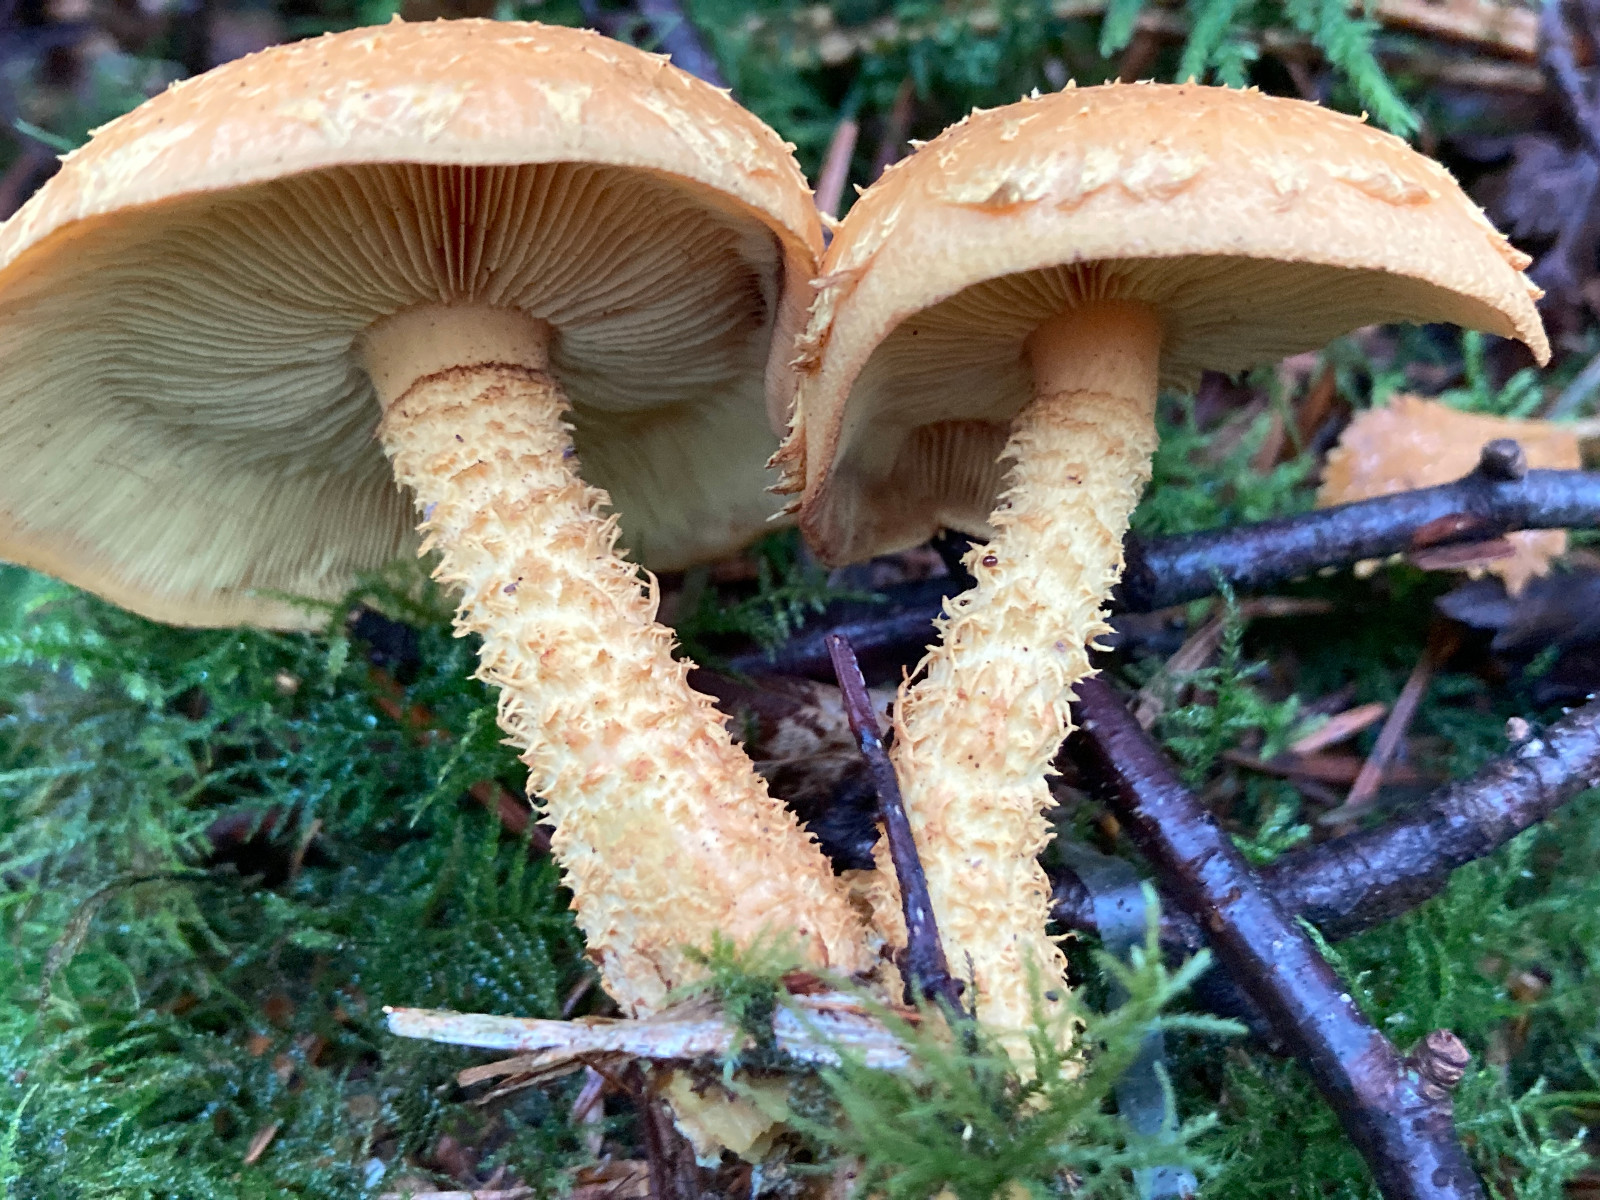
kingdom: Fungi
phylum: Basidiomycota
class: Agaricomycetes
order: Agaricales
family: Strophariaceae
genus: Pholiota
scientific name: Pholiota flammans
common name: flamme-skælhat
